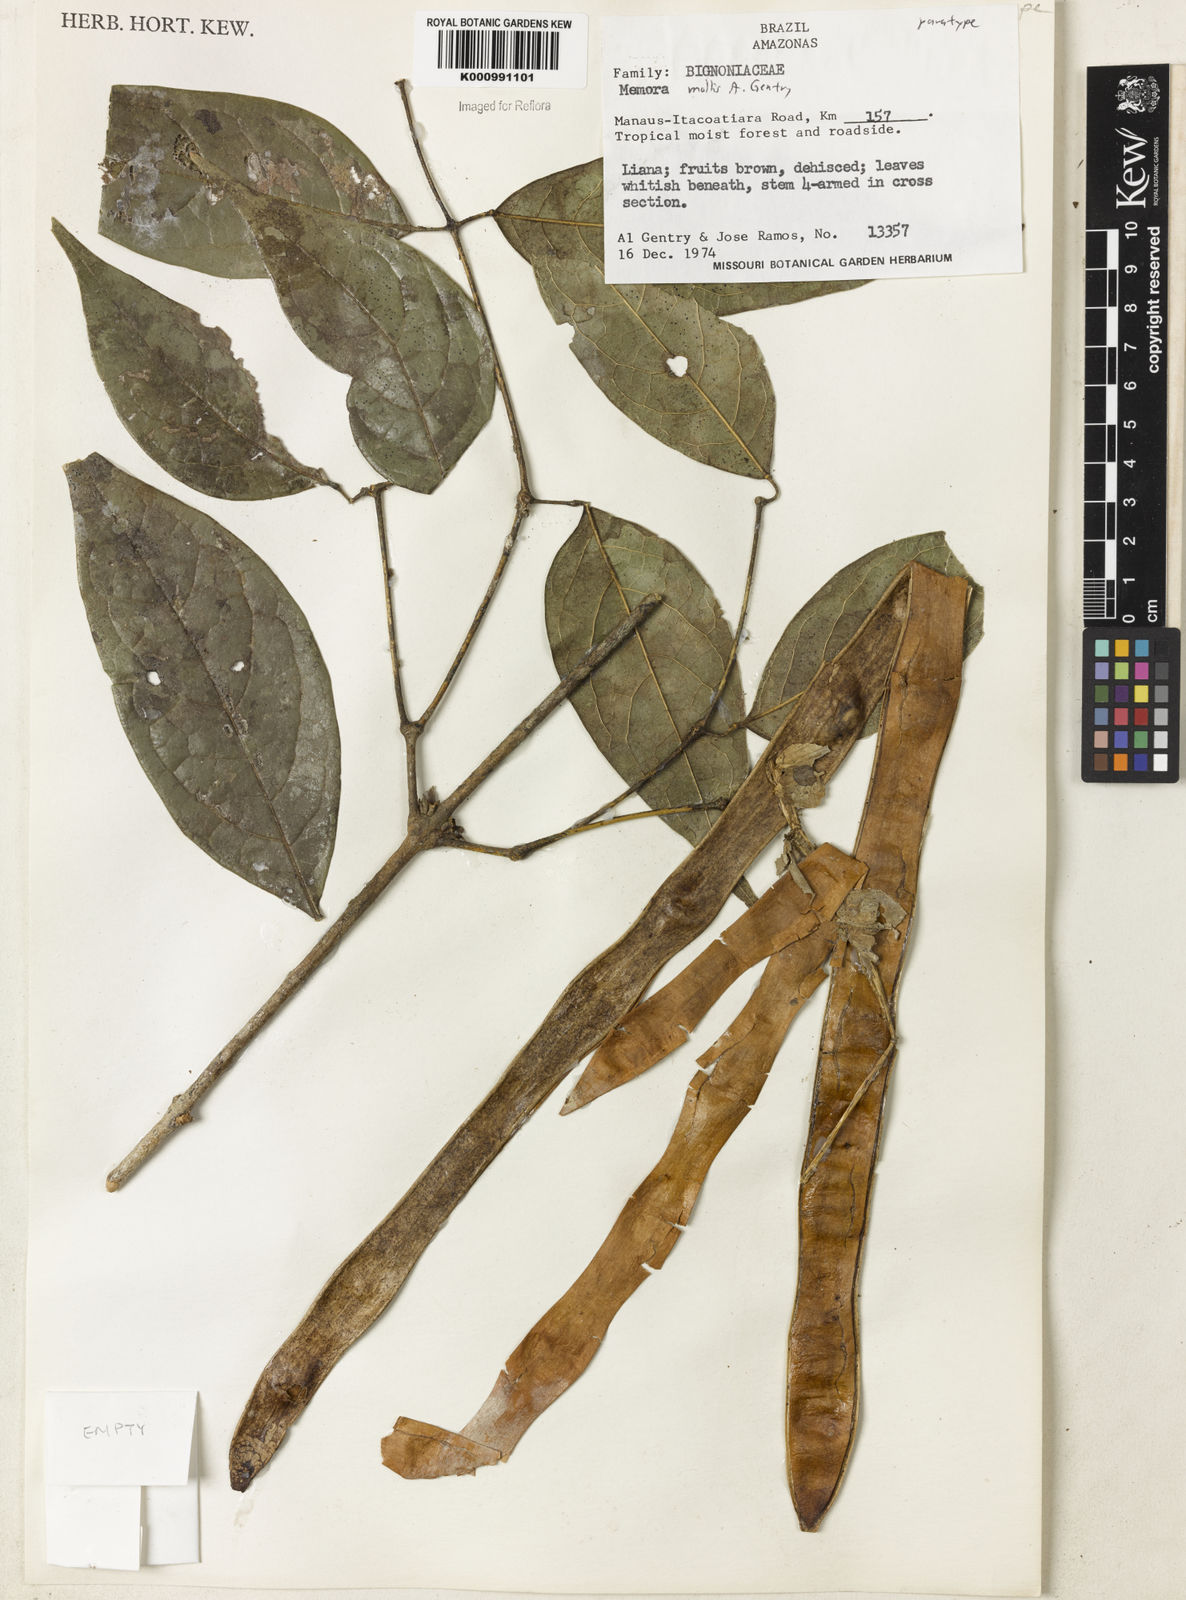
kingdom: Plantae
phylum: Tracheophyta
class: Magnoliopsida
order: Lamiales
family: Bignoniaceae
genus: Adenocalymma
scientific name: Adenocalymma molle
